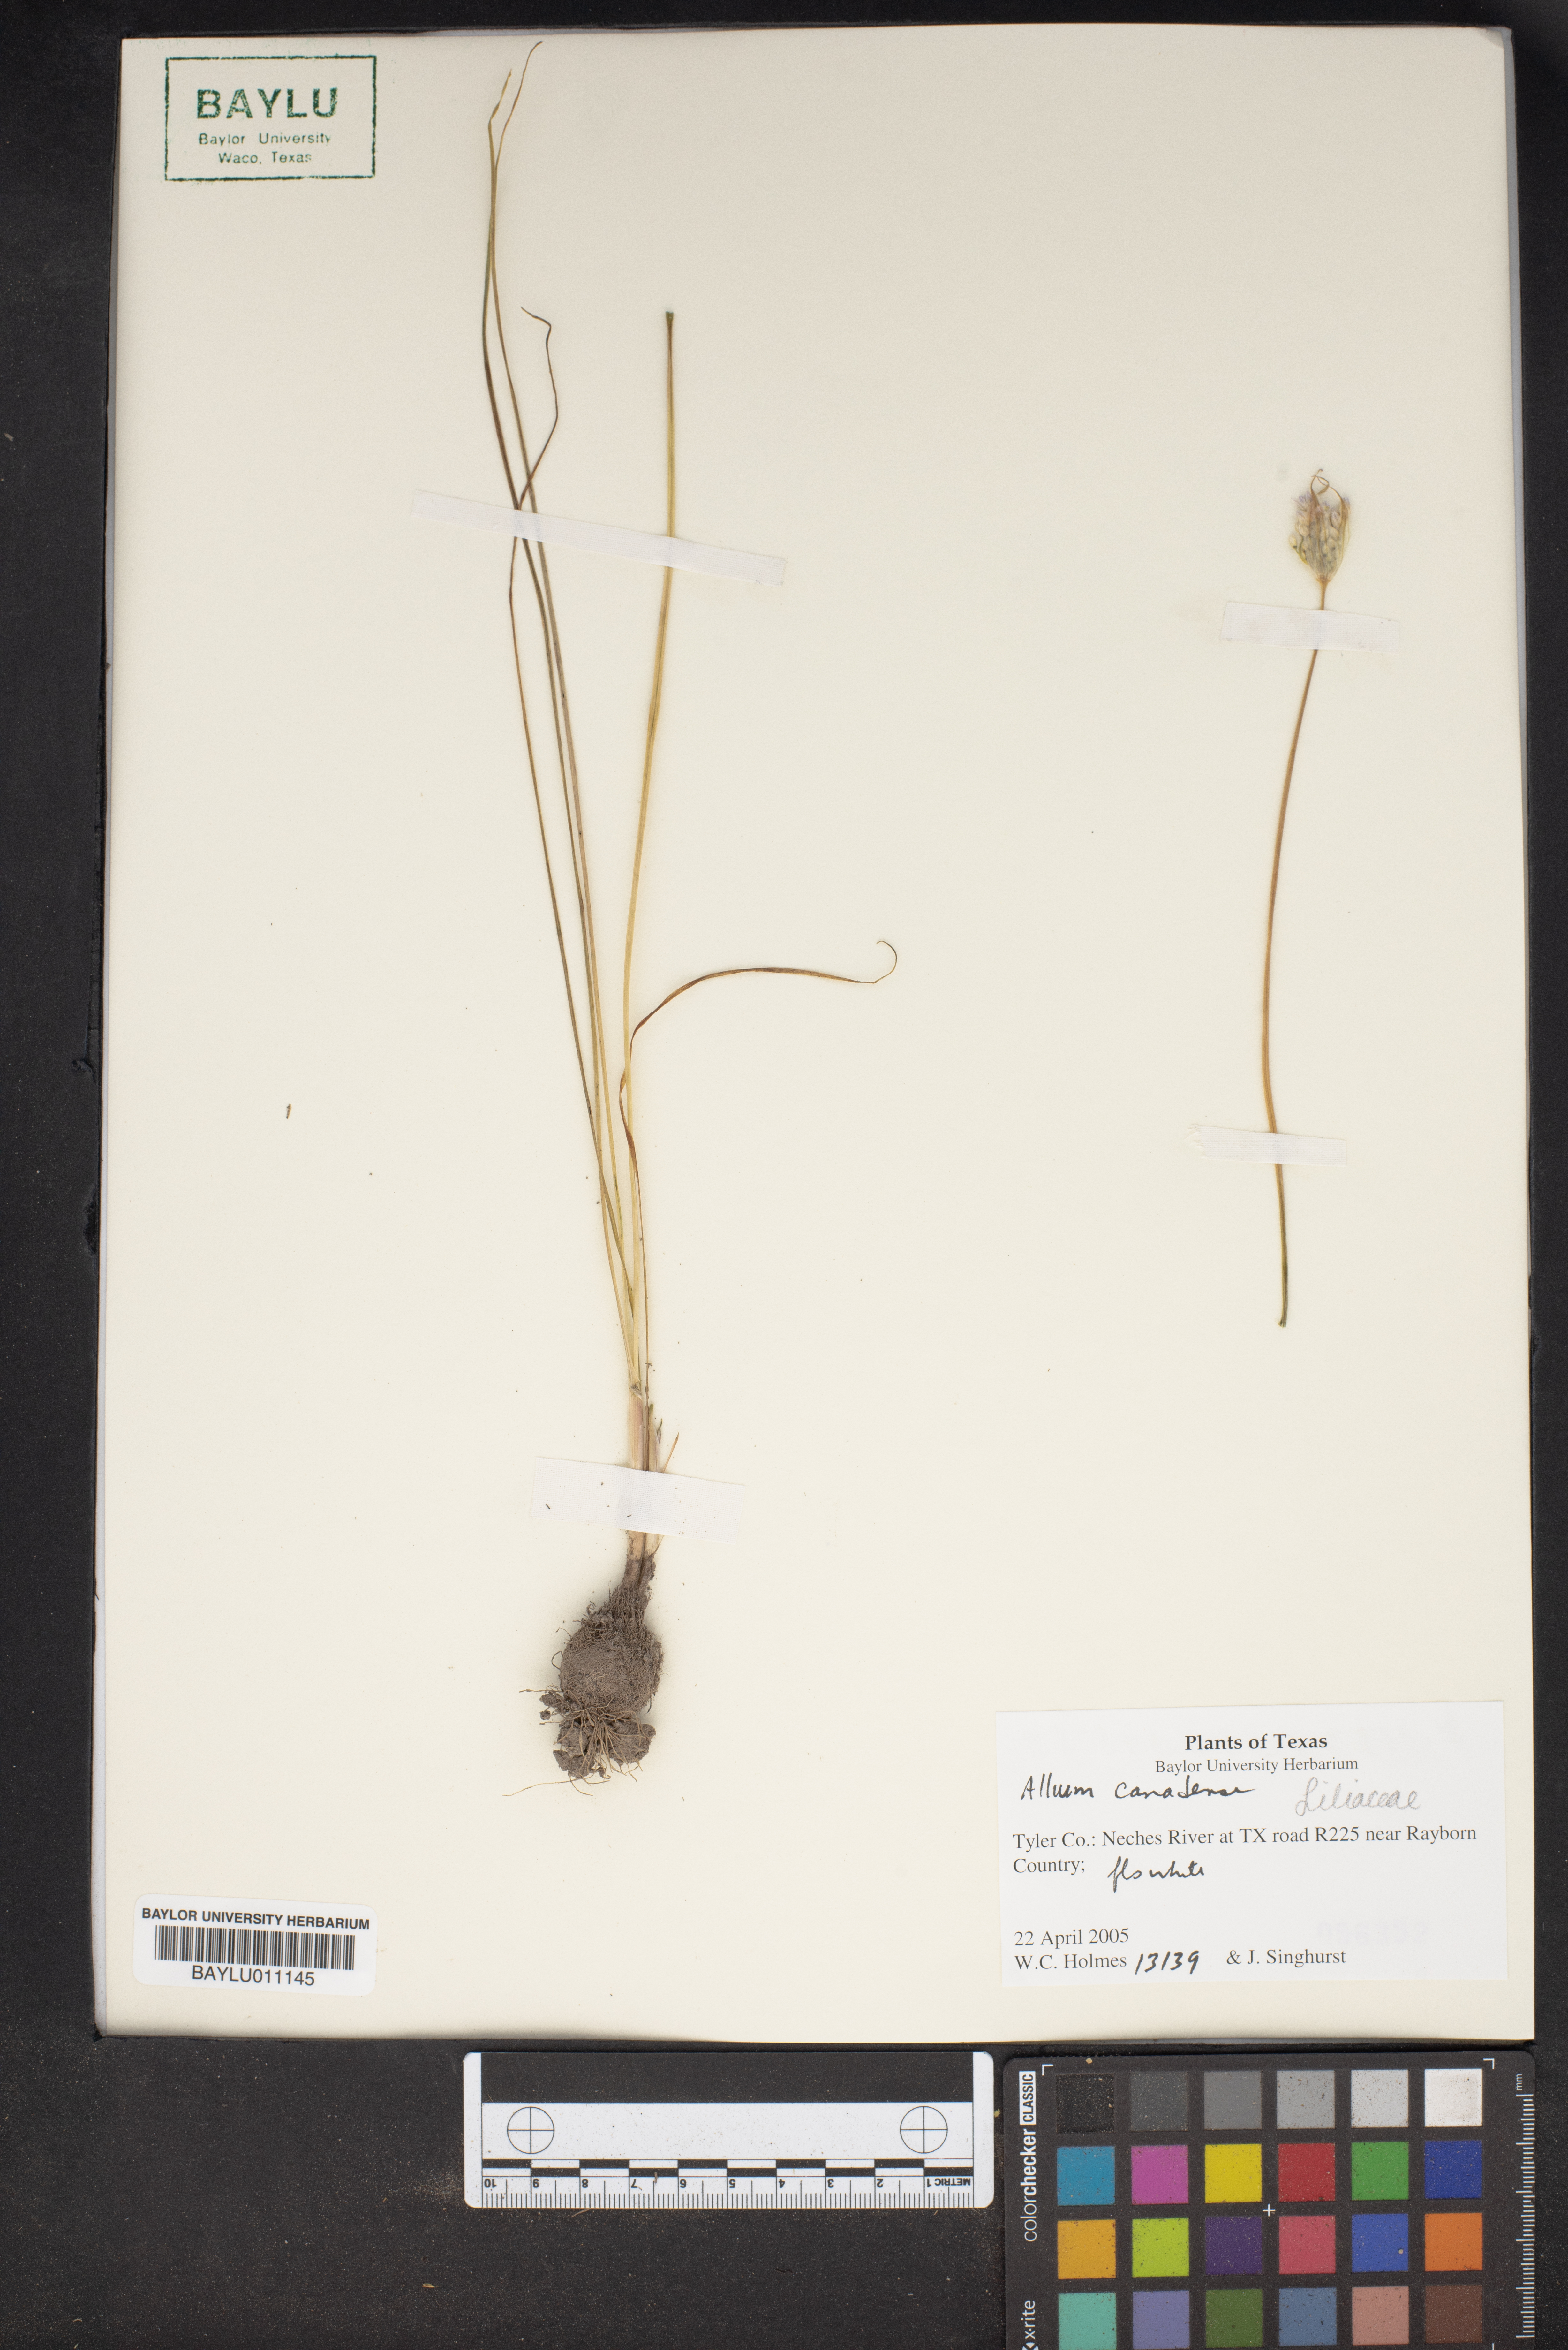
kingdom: Plantae
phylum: Tracheophyta
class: Liliopsida
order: Asparagales
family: Amaryllidaceae
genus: Allium
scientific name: Allium canadense
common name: Meadow garlic
